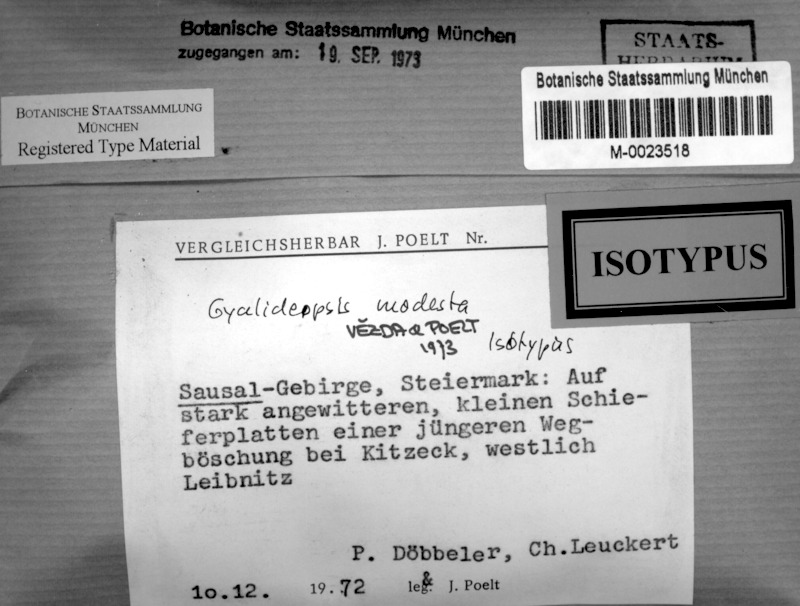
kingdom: Fungi
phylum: Ascomycota
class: Lecanoromycetes
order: Ostropales
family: Gomphillaceae
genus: Gyalideopsis
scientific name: Gyalideopsis
